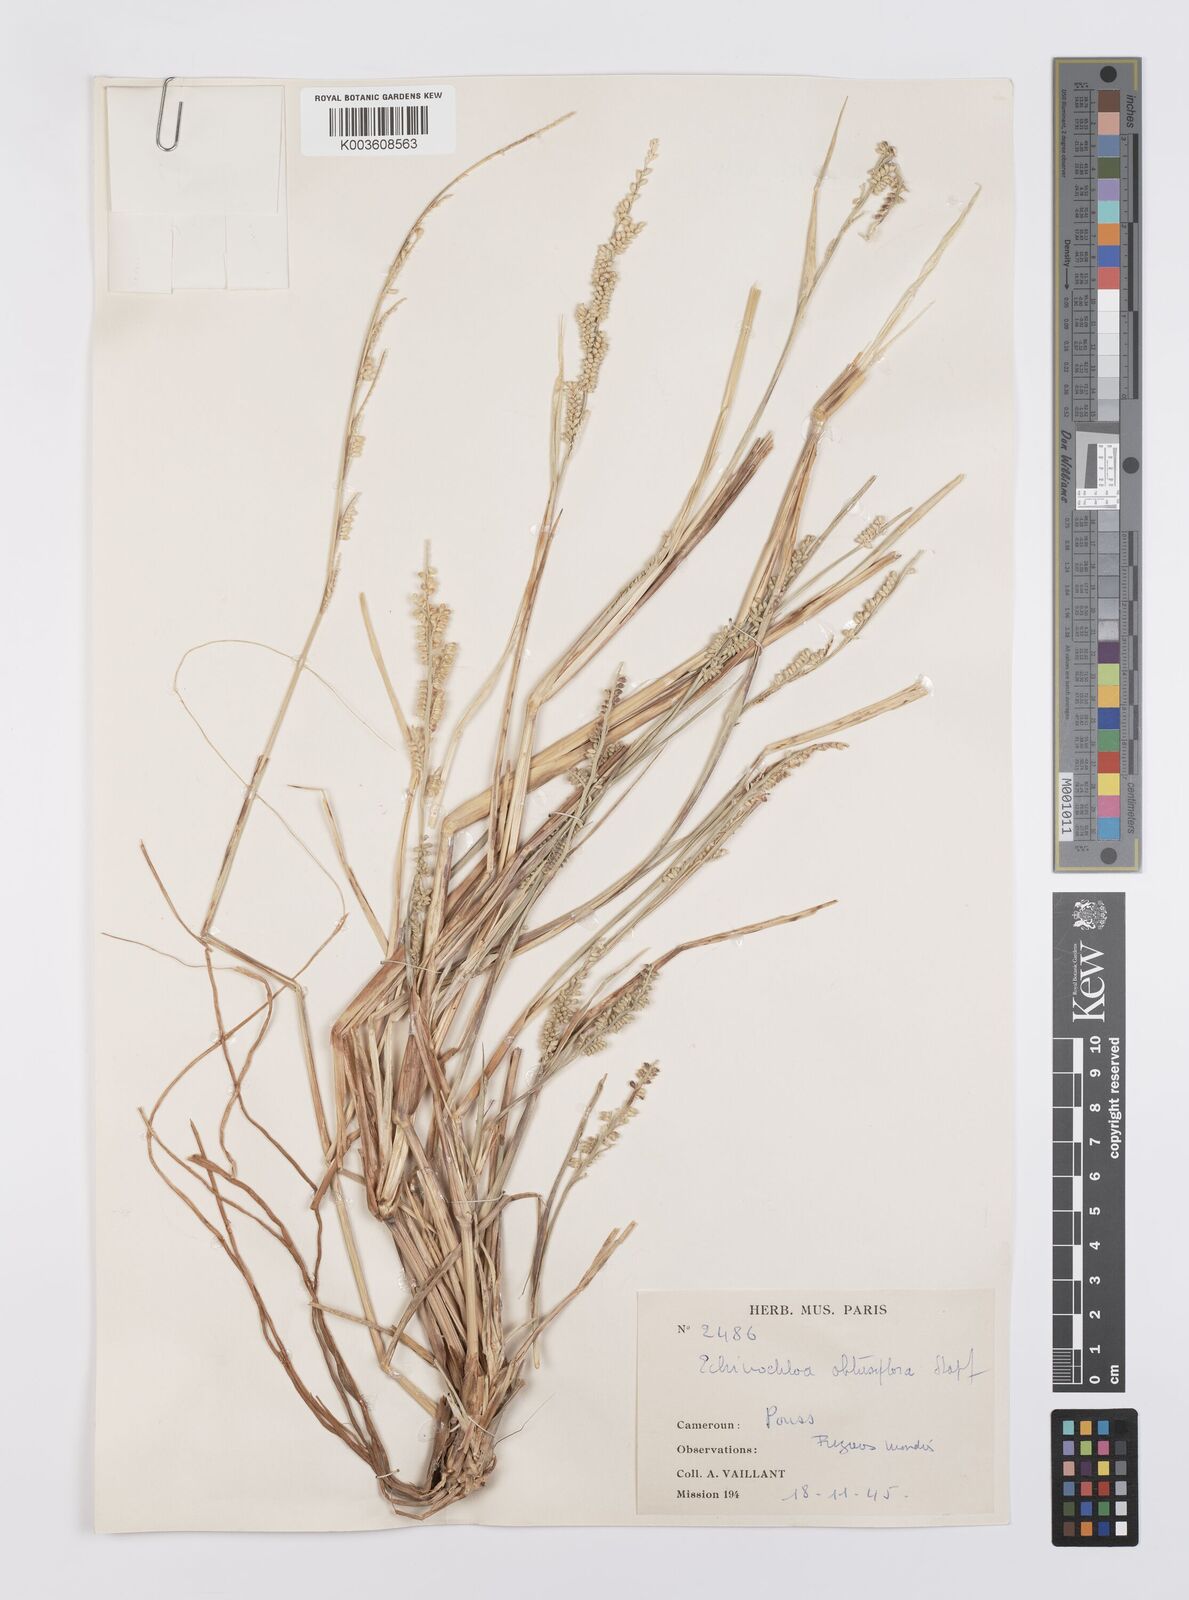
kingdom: Plantae
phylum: Tracheophyta
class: Liliopsida
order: Poales
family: Poaceae
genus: Echinochloa
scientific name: Echinochloa obtusiflora
